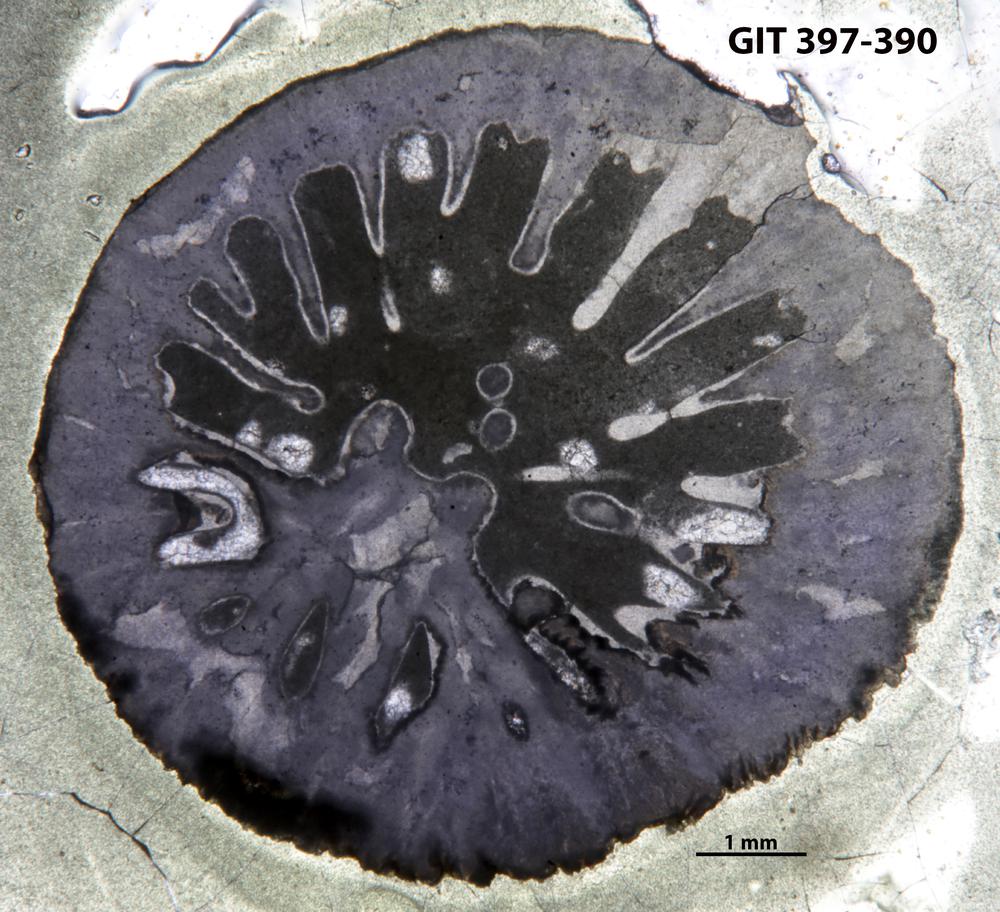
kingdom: Animalia
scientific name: Animalia
